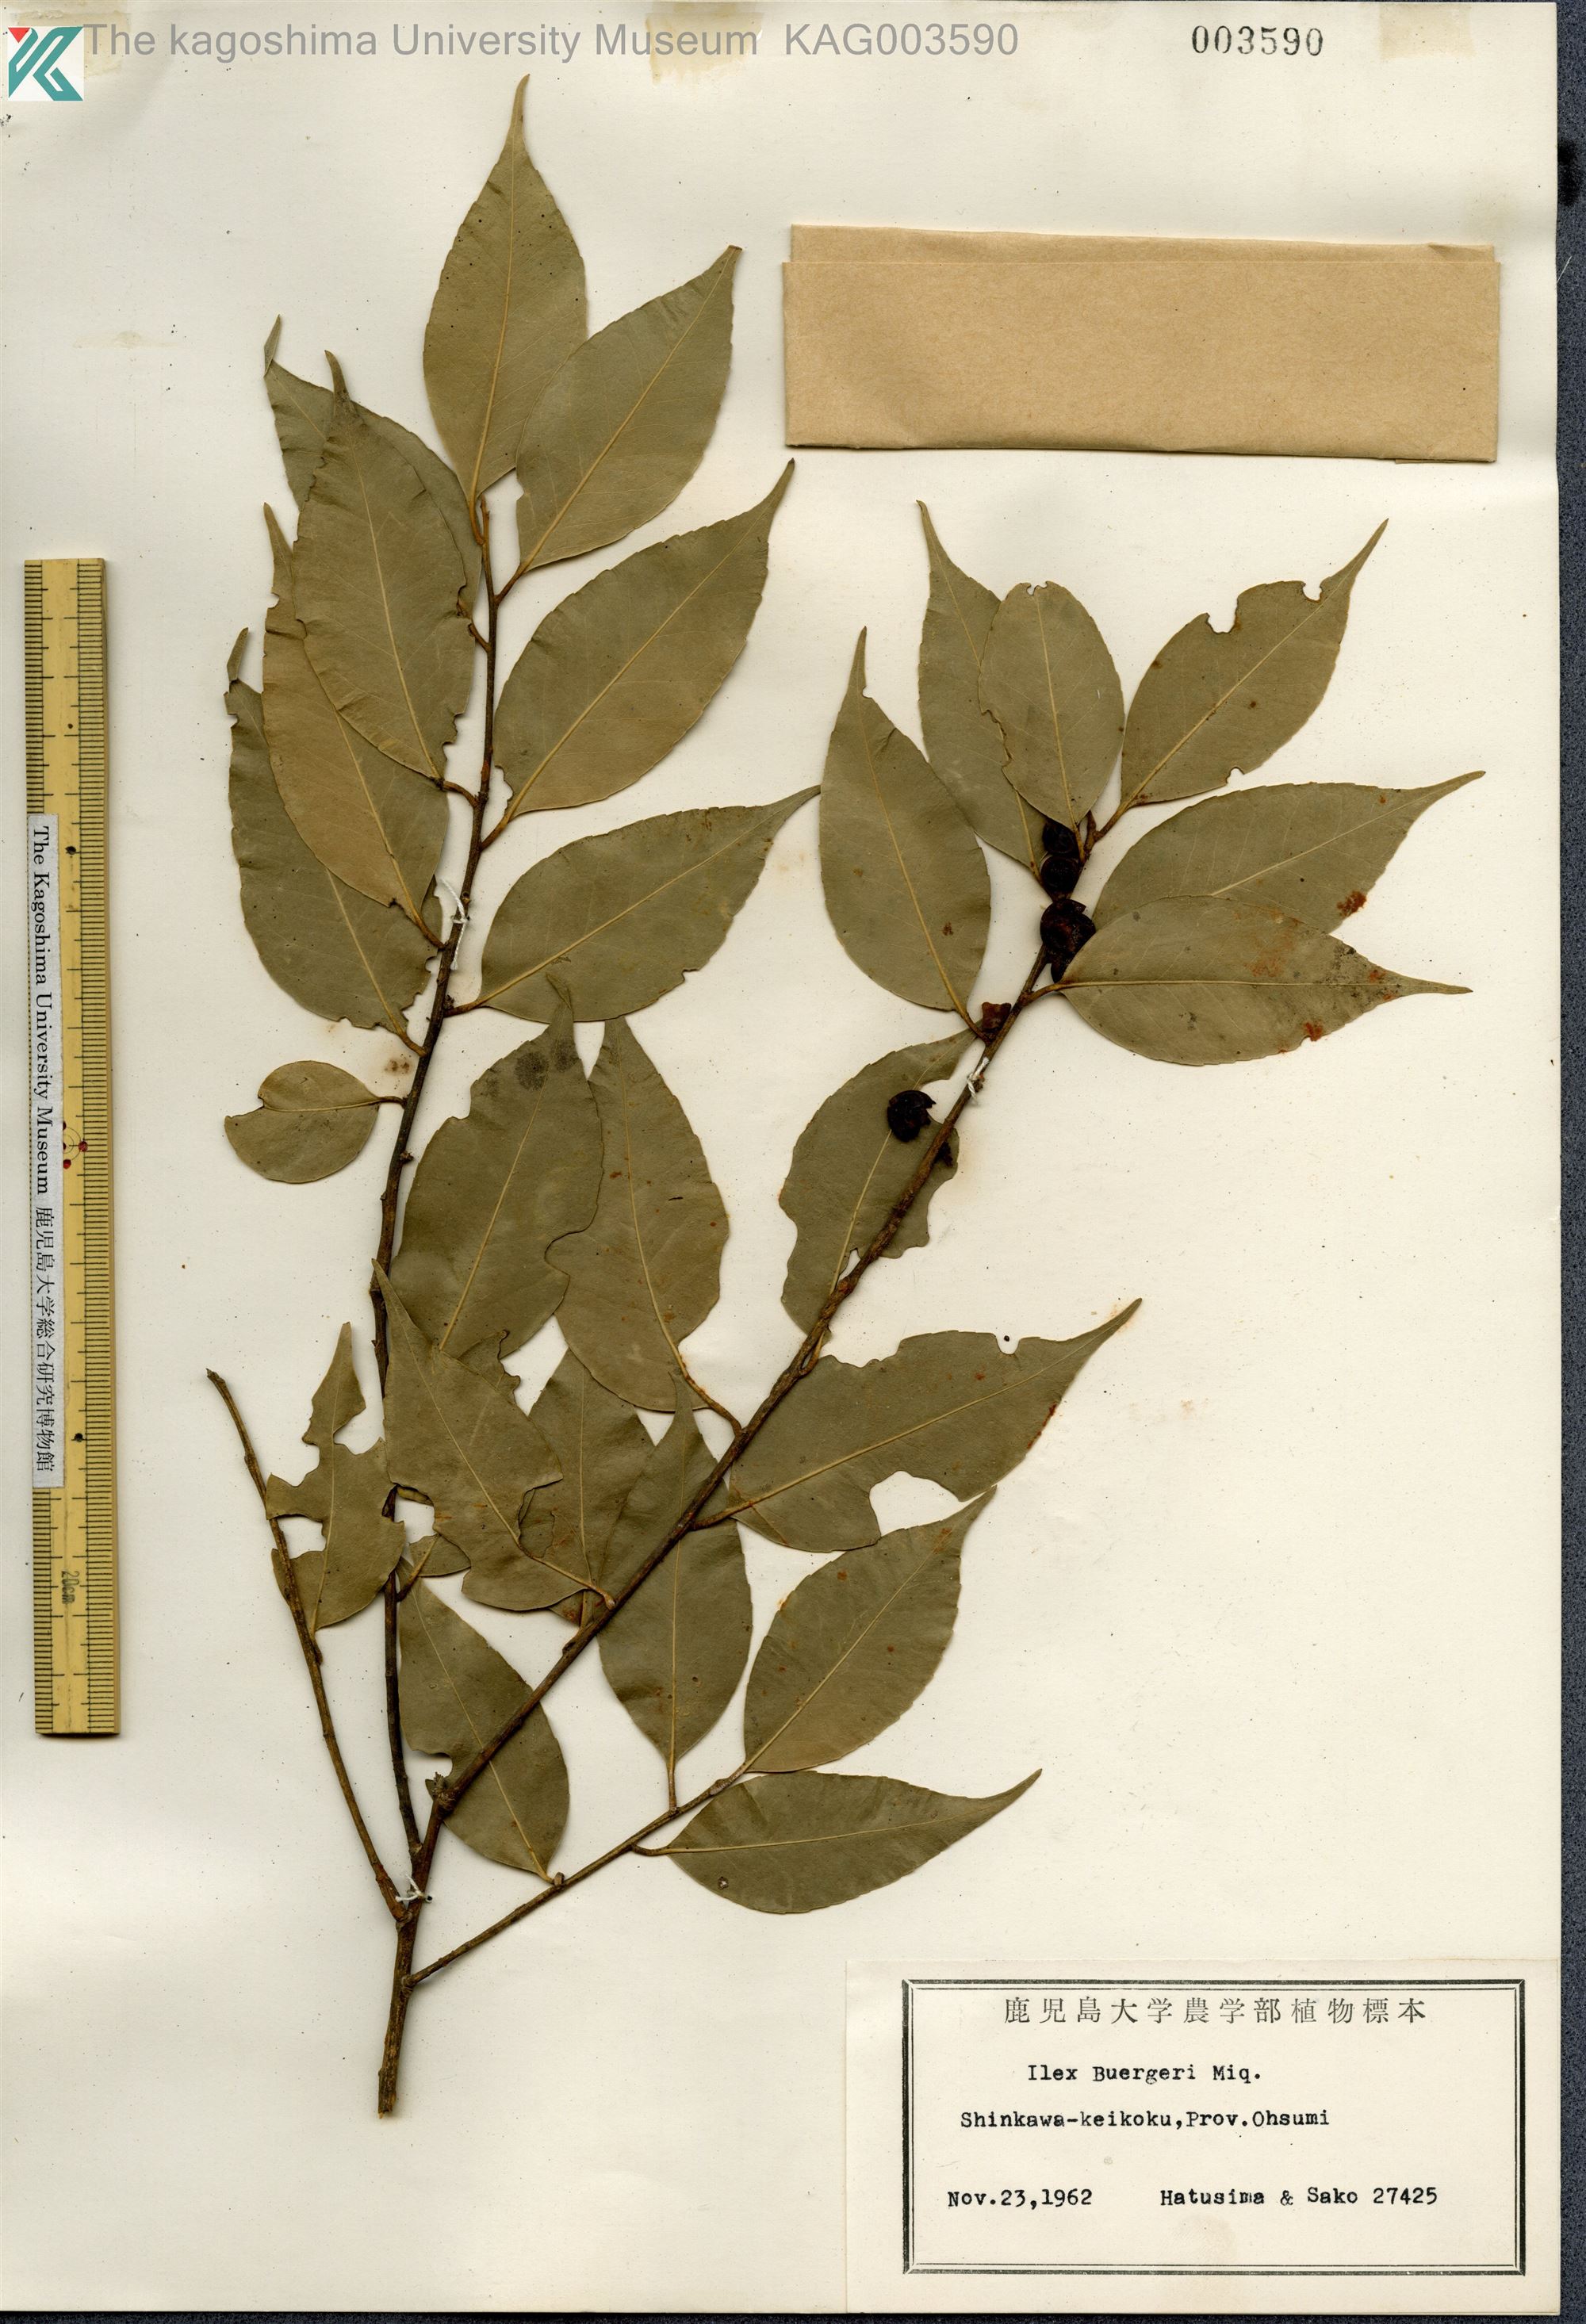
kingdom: Plantae
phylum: Tracheophyta
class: Magnoliopsida
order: Aquifoliales
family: Aquifoliaceae
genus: Ilex
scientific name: Ilex buergeri
